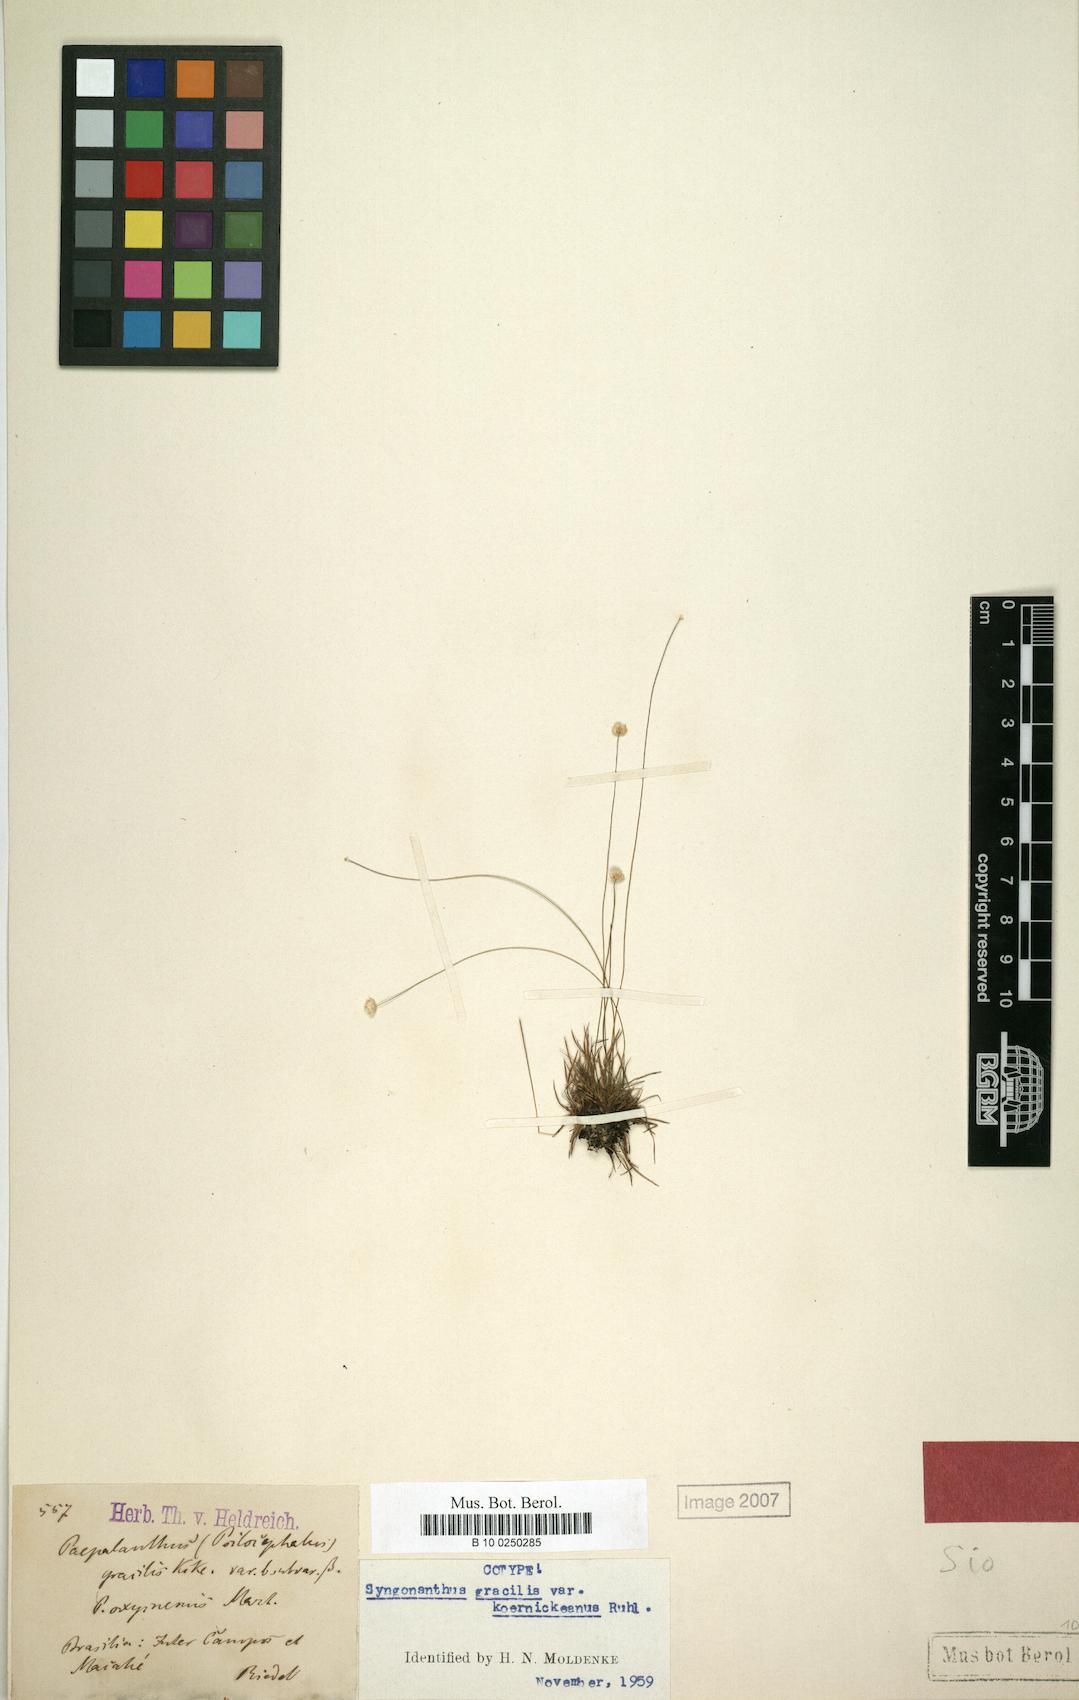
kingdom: Plantae
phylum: Tracheophyta
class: Liliopsida
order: Poales
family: Eriocaulaceae
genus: Syngonanthus
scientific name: Syngonanthus gracilis
